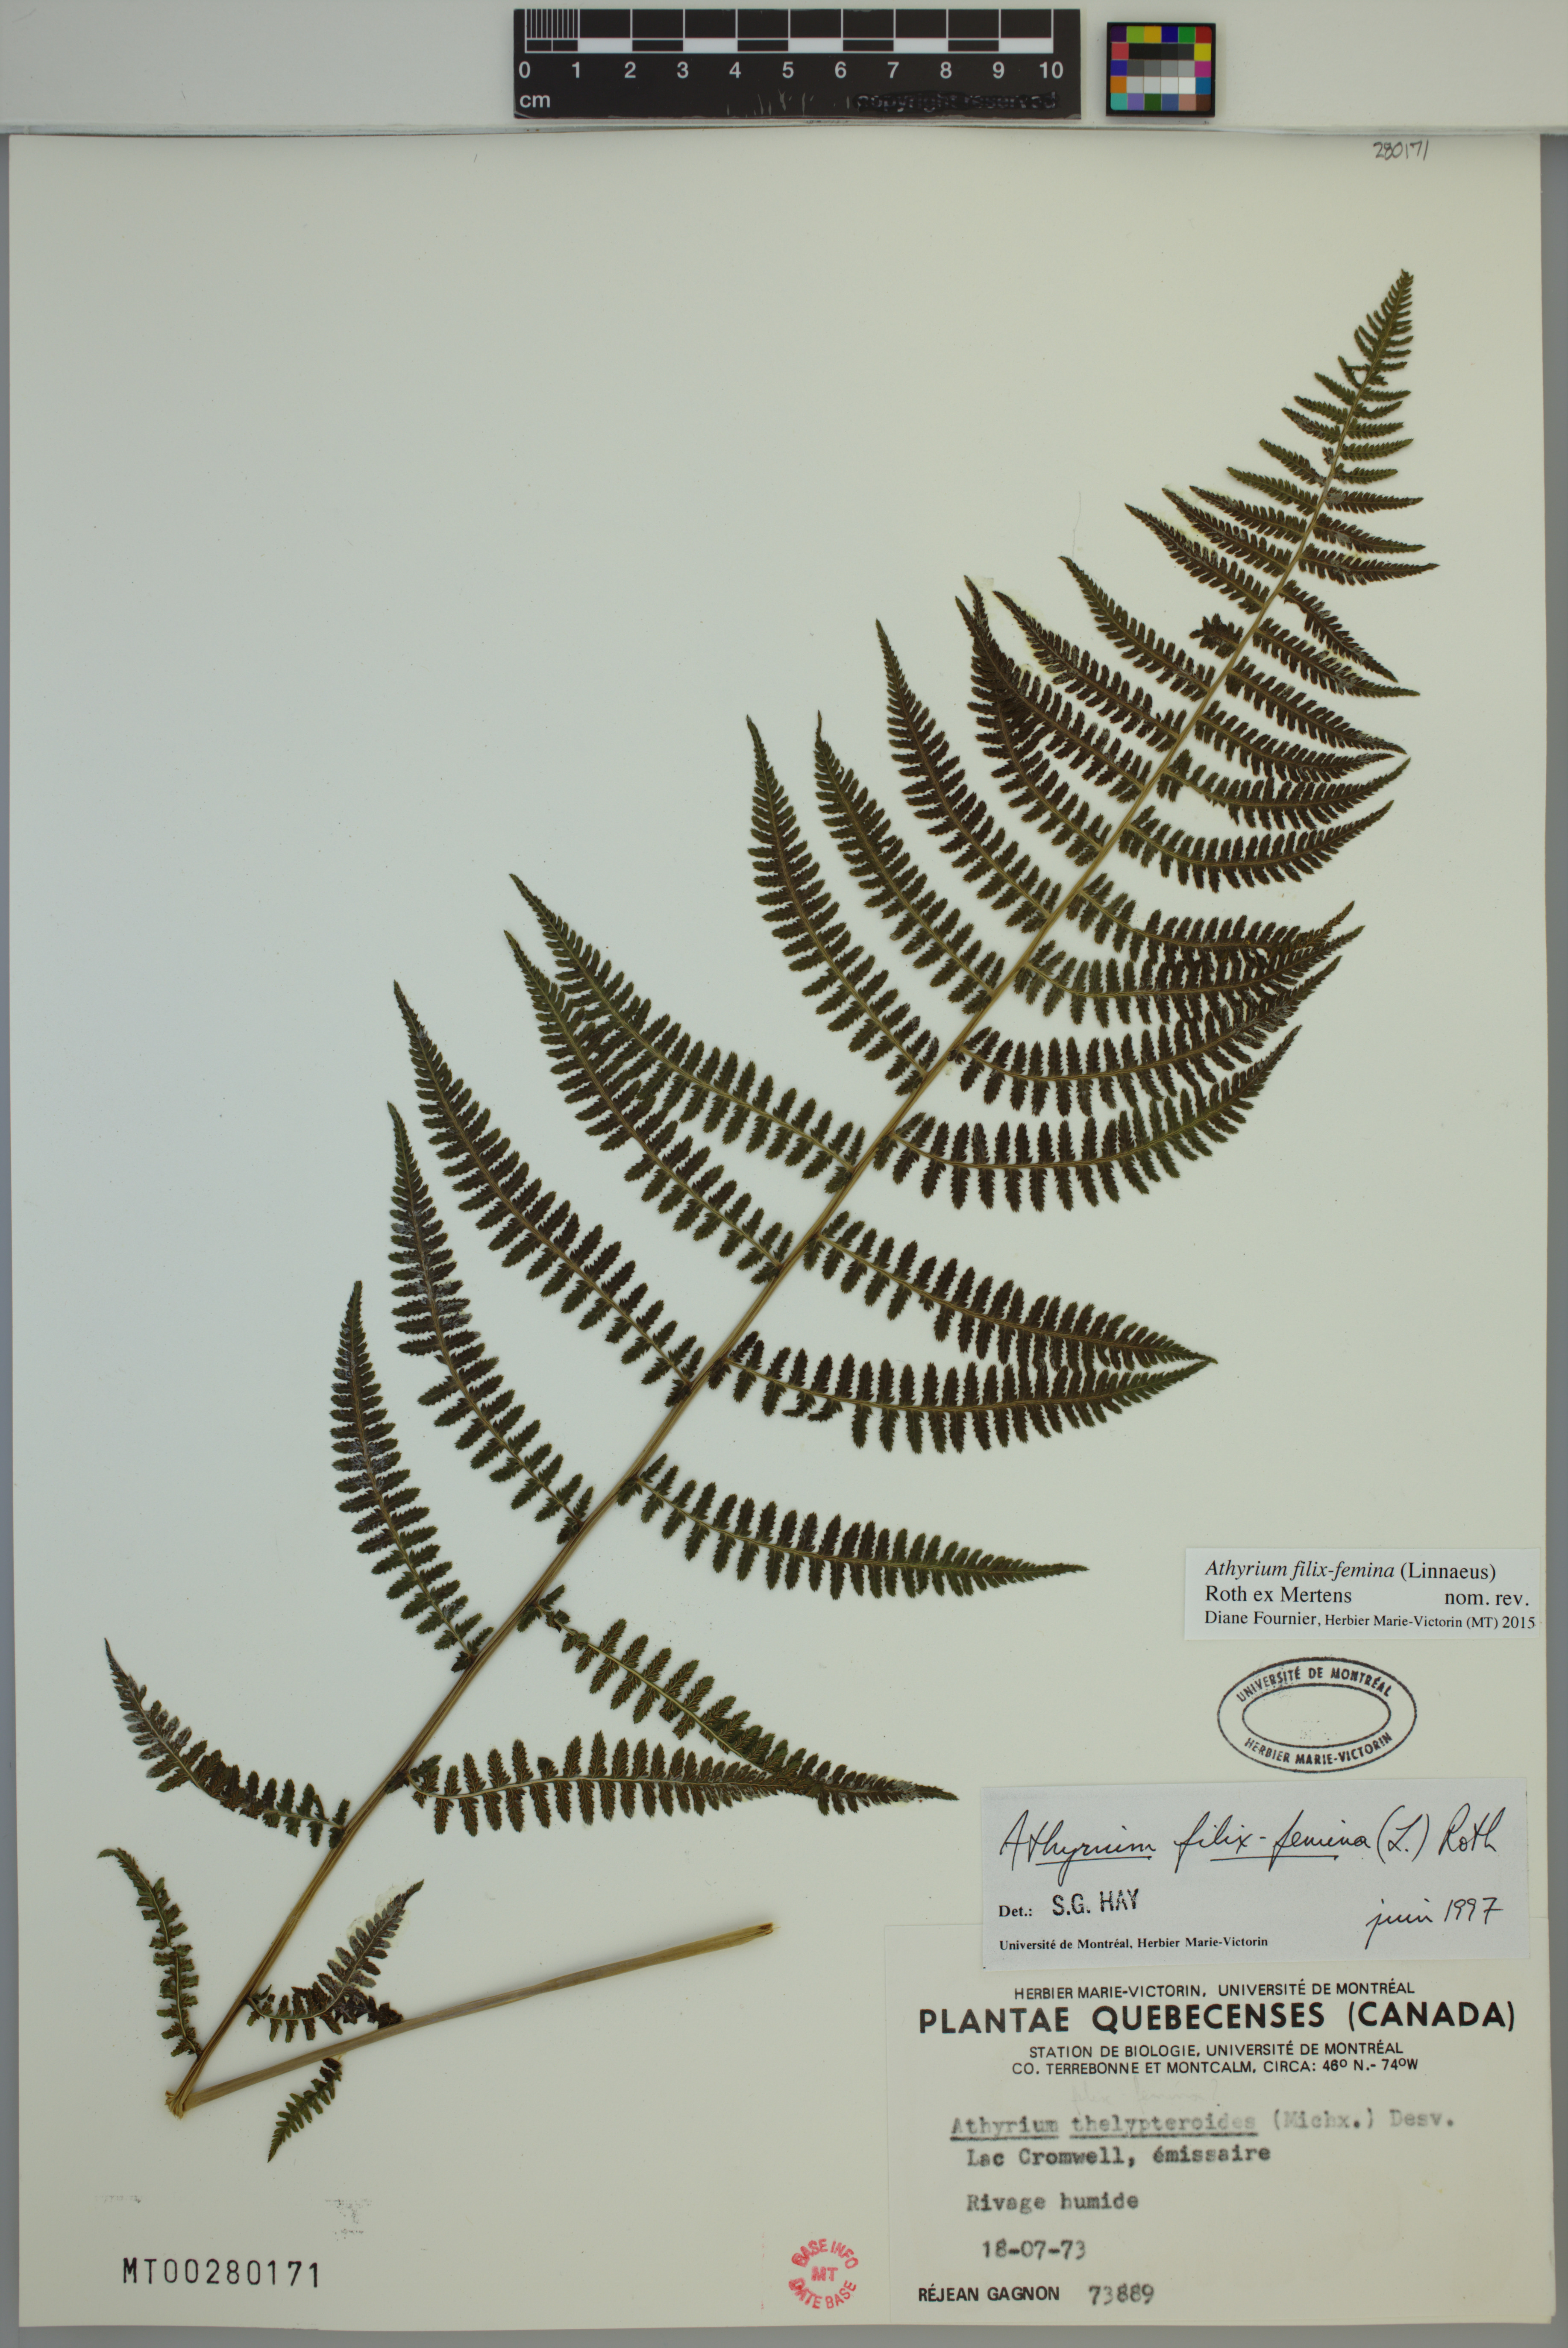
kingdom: Plantae
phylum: Tracheophyta
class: Polypodiopsida
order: Polypodiales
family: Athyriaceae
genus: Athyrium
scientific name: Athyrium filix-femina
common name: Lady fern
